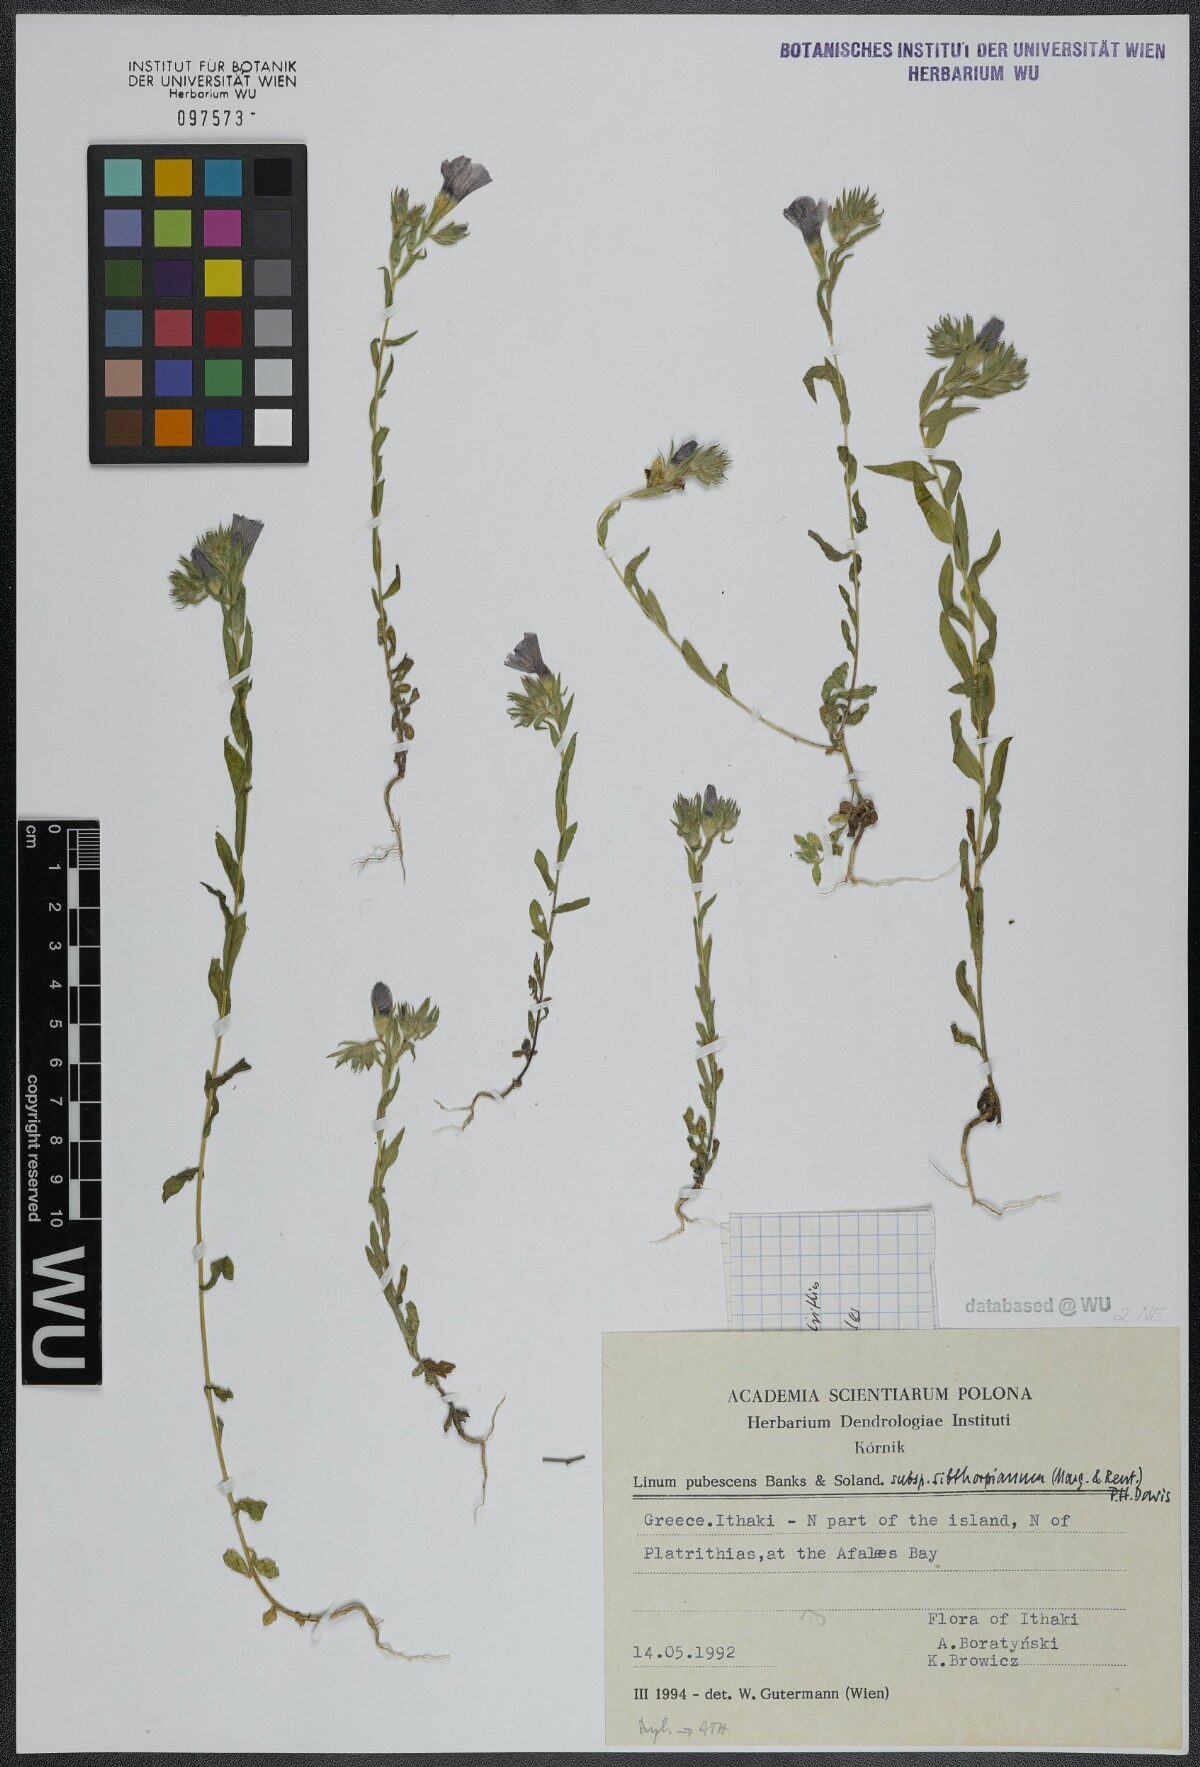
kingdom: Plantae
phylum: Tracheophyta
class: Magnoliopsida
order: Malpighiales
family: Linaceae
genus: Linum
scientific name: Linum pubescens
